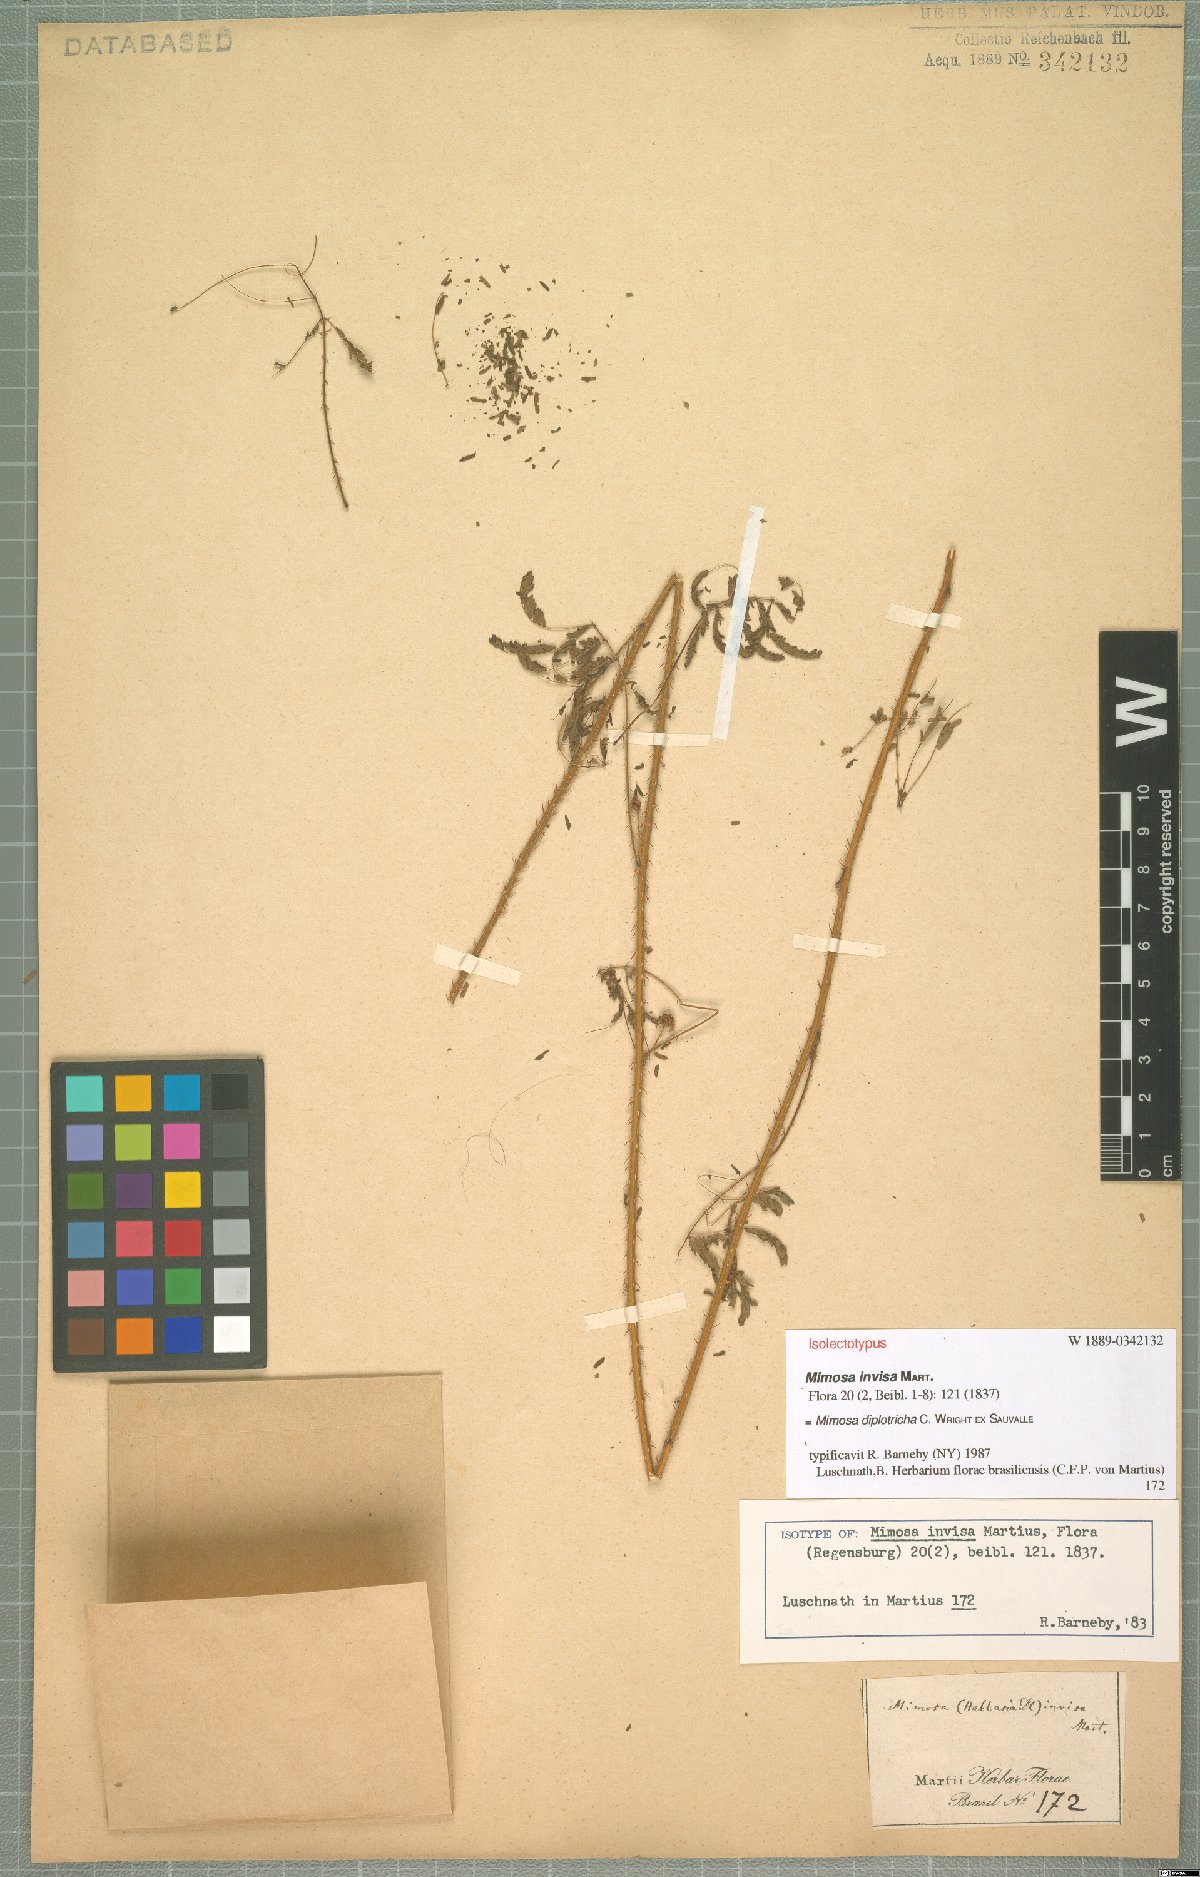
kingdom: Plantae
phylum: Tracheophyta
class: Magnoliopsida
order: Fabales
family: Fabaceae
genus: Mimosa
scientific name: Mimosa diplotricha
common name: Giant sensitive-plant
